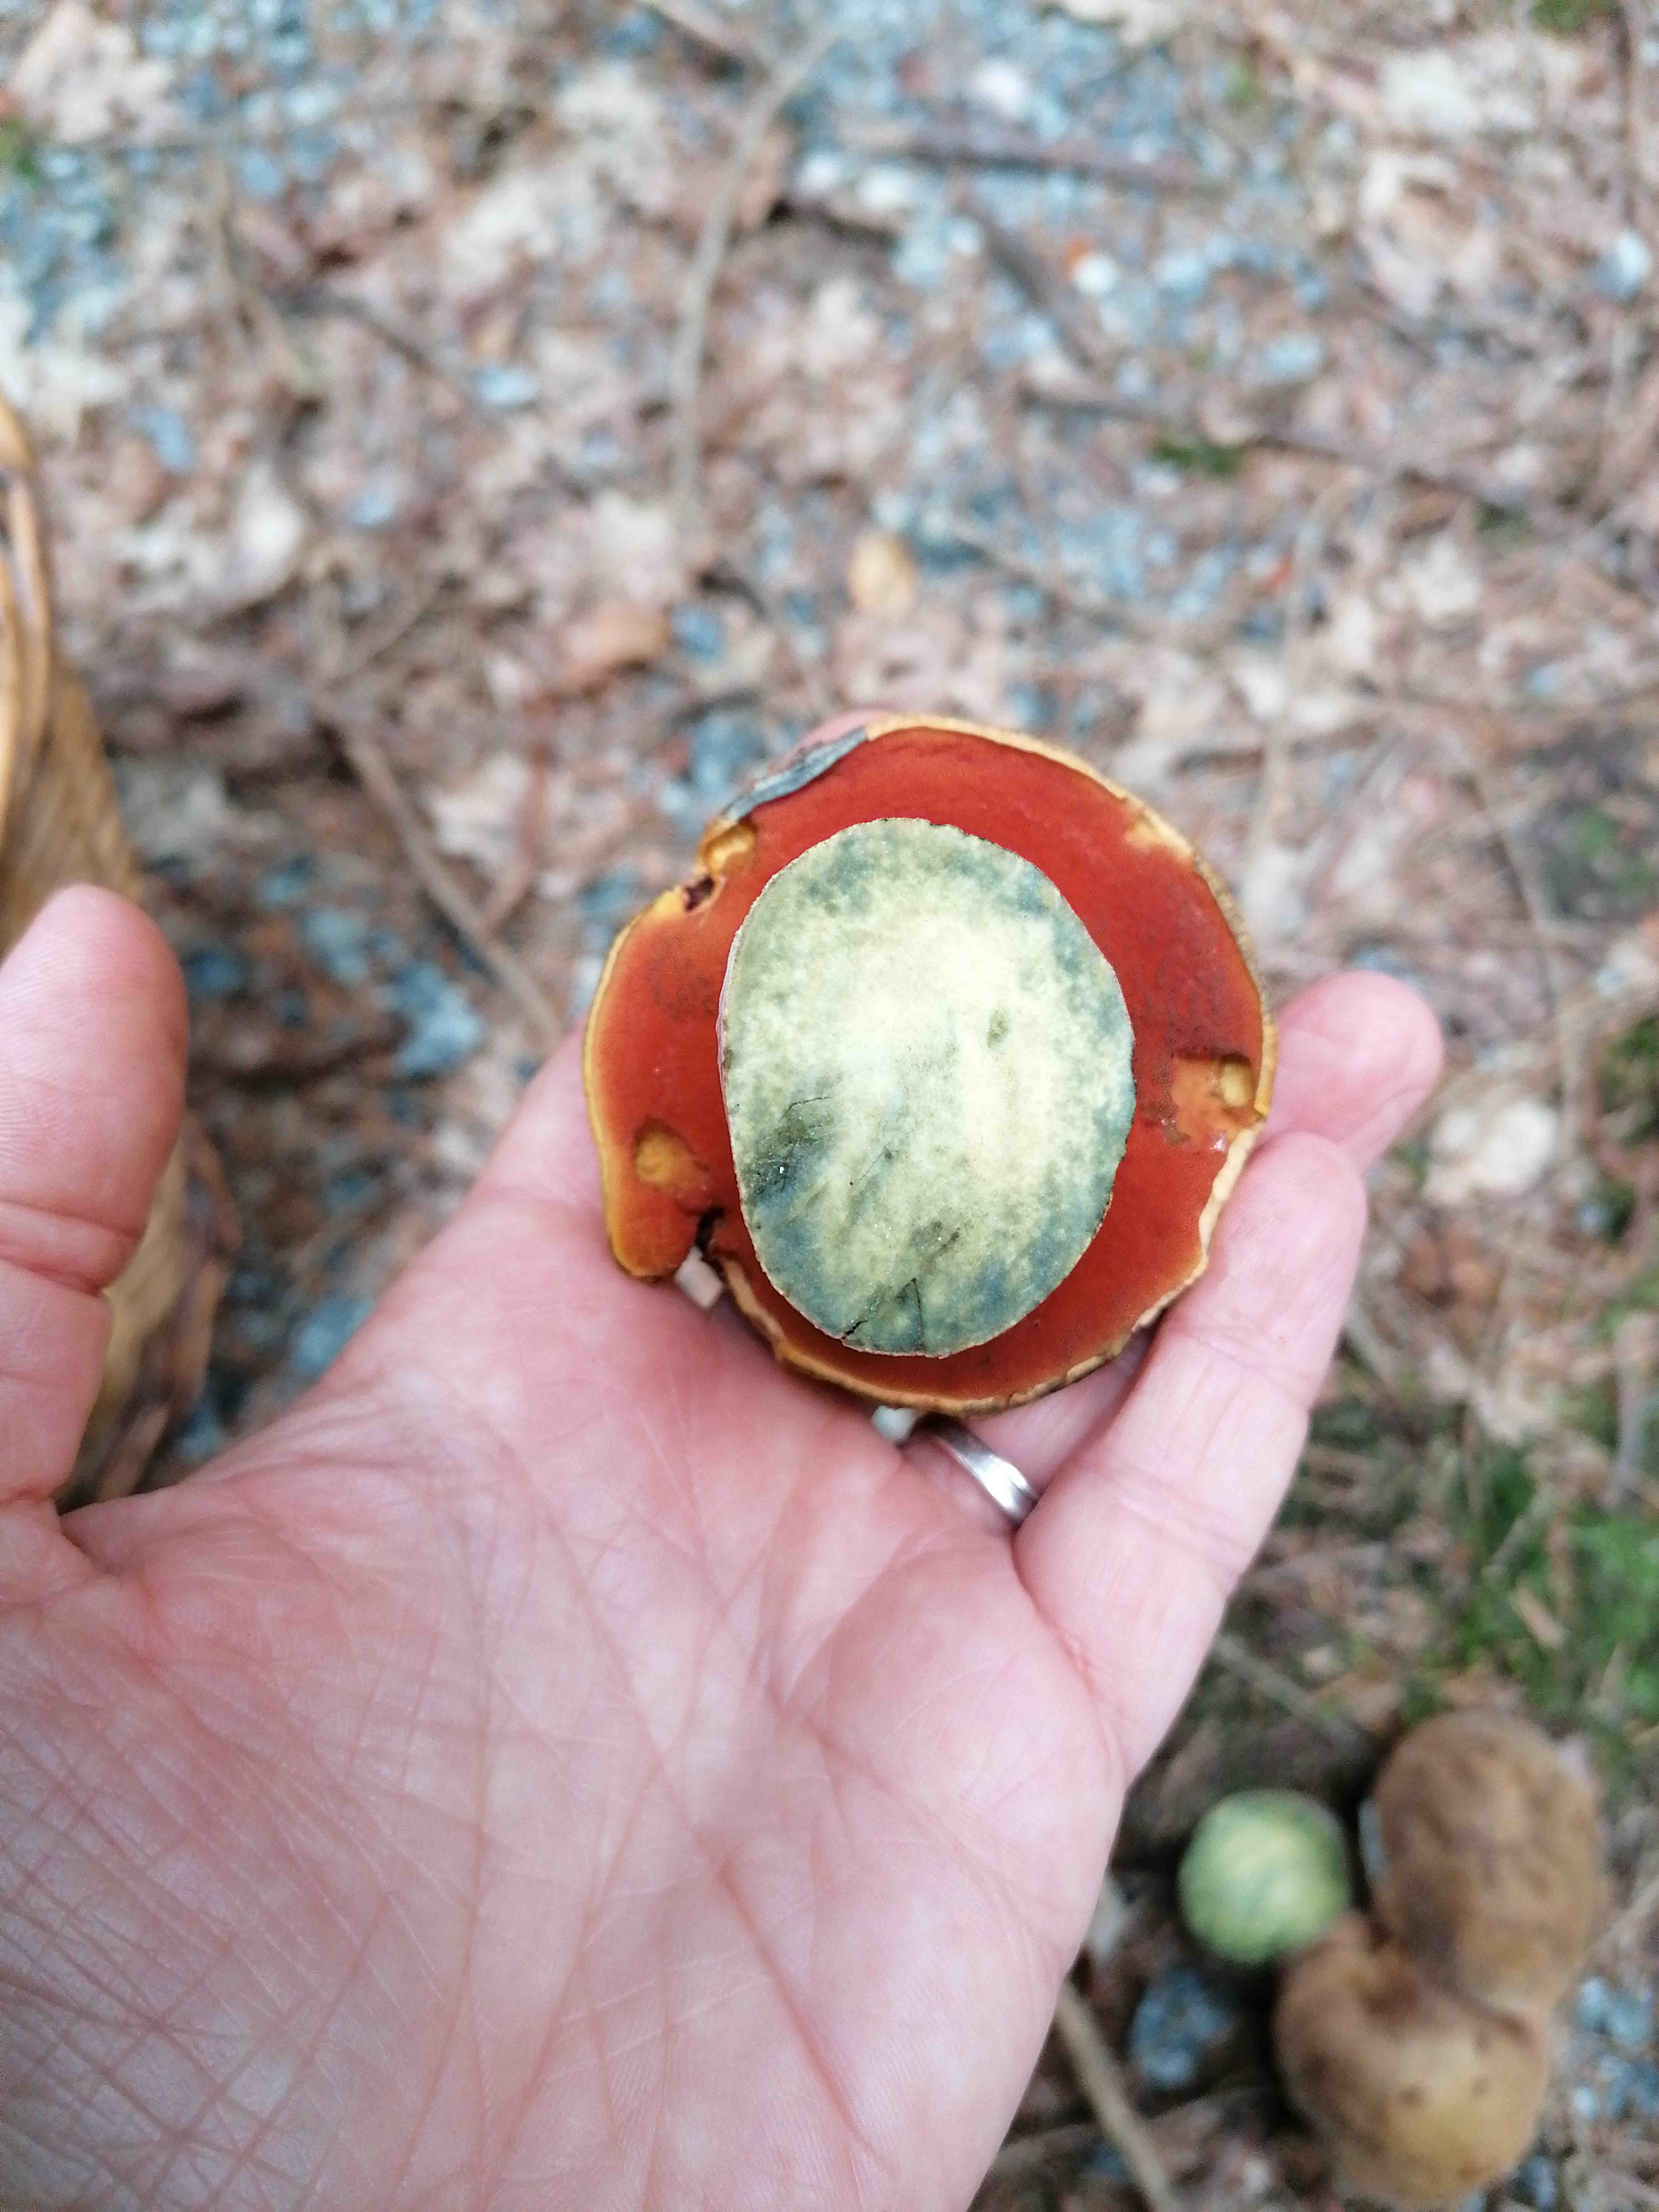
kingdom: Fungi
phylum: Basidiomycota
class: Agaricomycetes
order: Boletales
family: Boletaceae
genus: Neoboletus
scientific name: Neoboletus erythropus
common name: punktstokket indigorørhat
